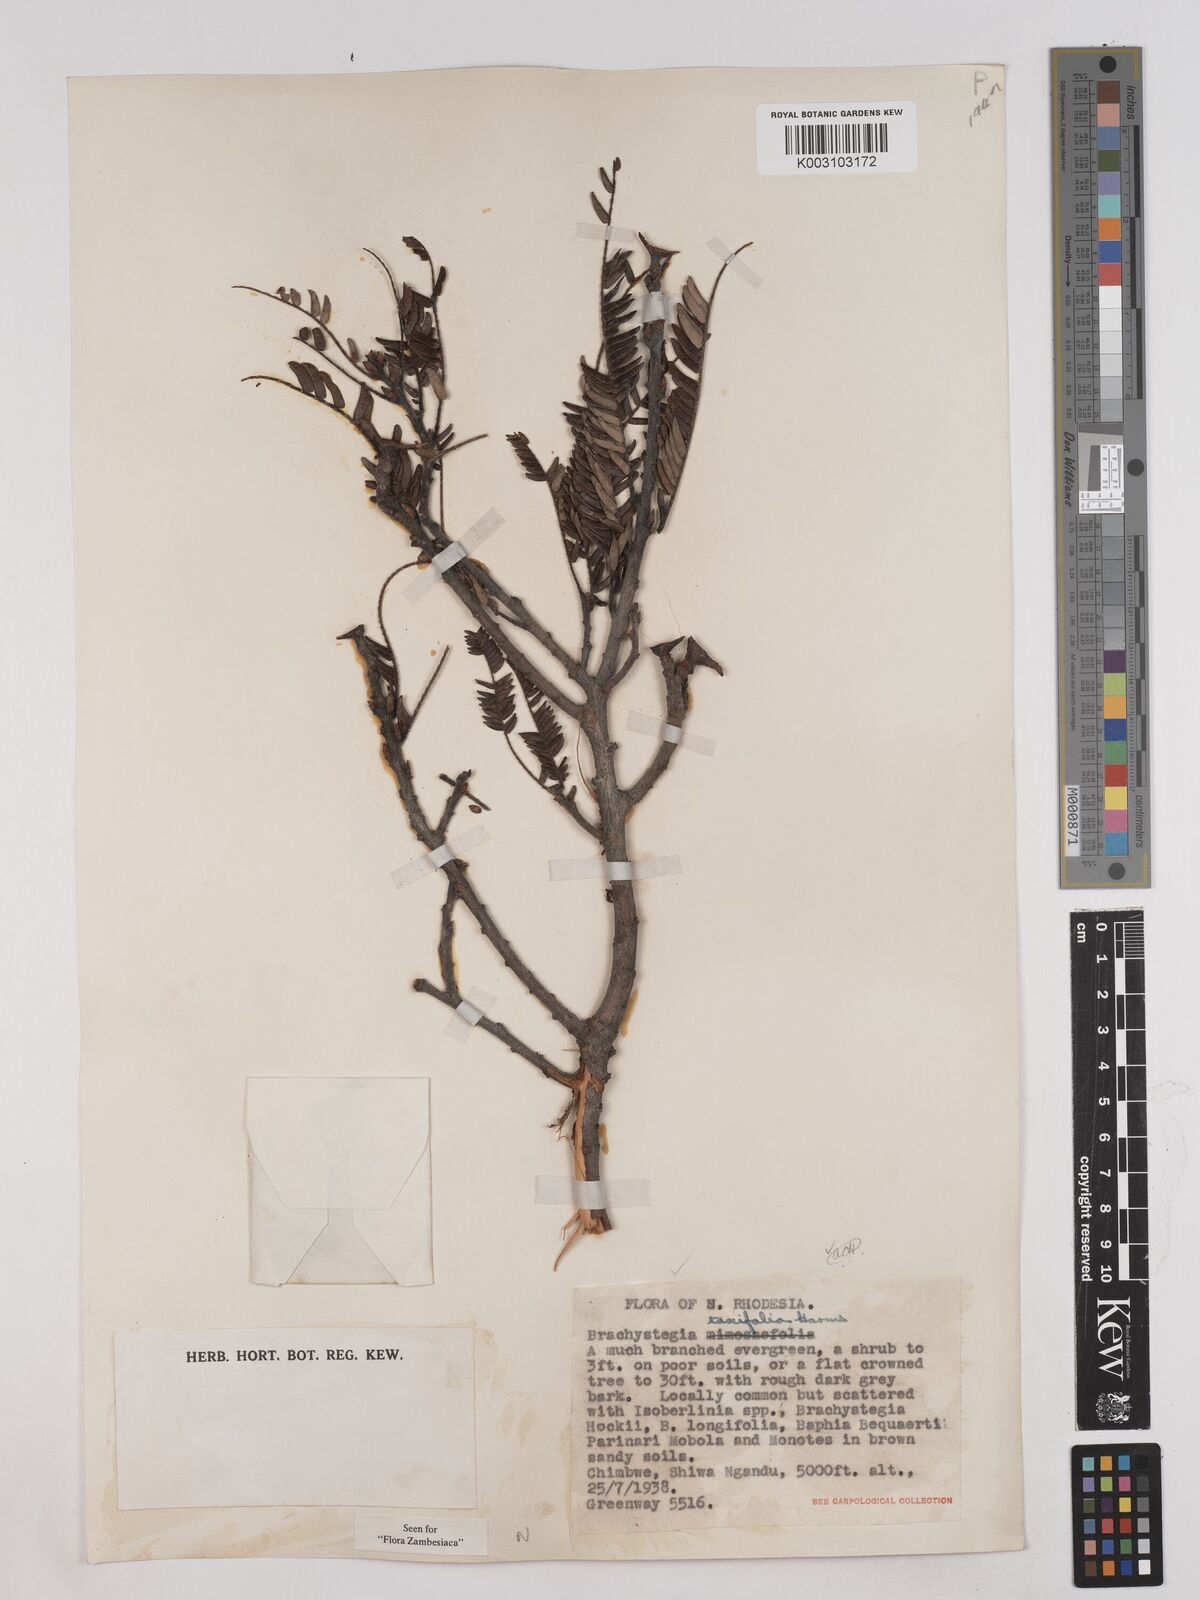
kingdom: Plantae
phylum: Tracheophyta
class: Magnoliopsida
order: Fabales
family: Fabaceae
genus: Brachystegia
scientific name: Brachystegia taxifolia
